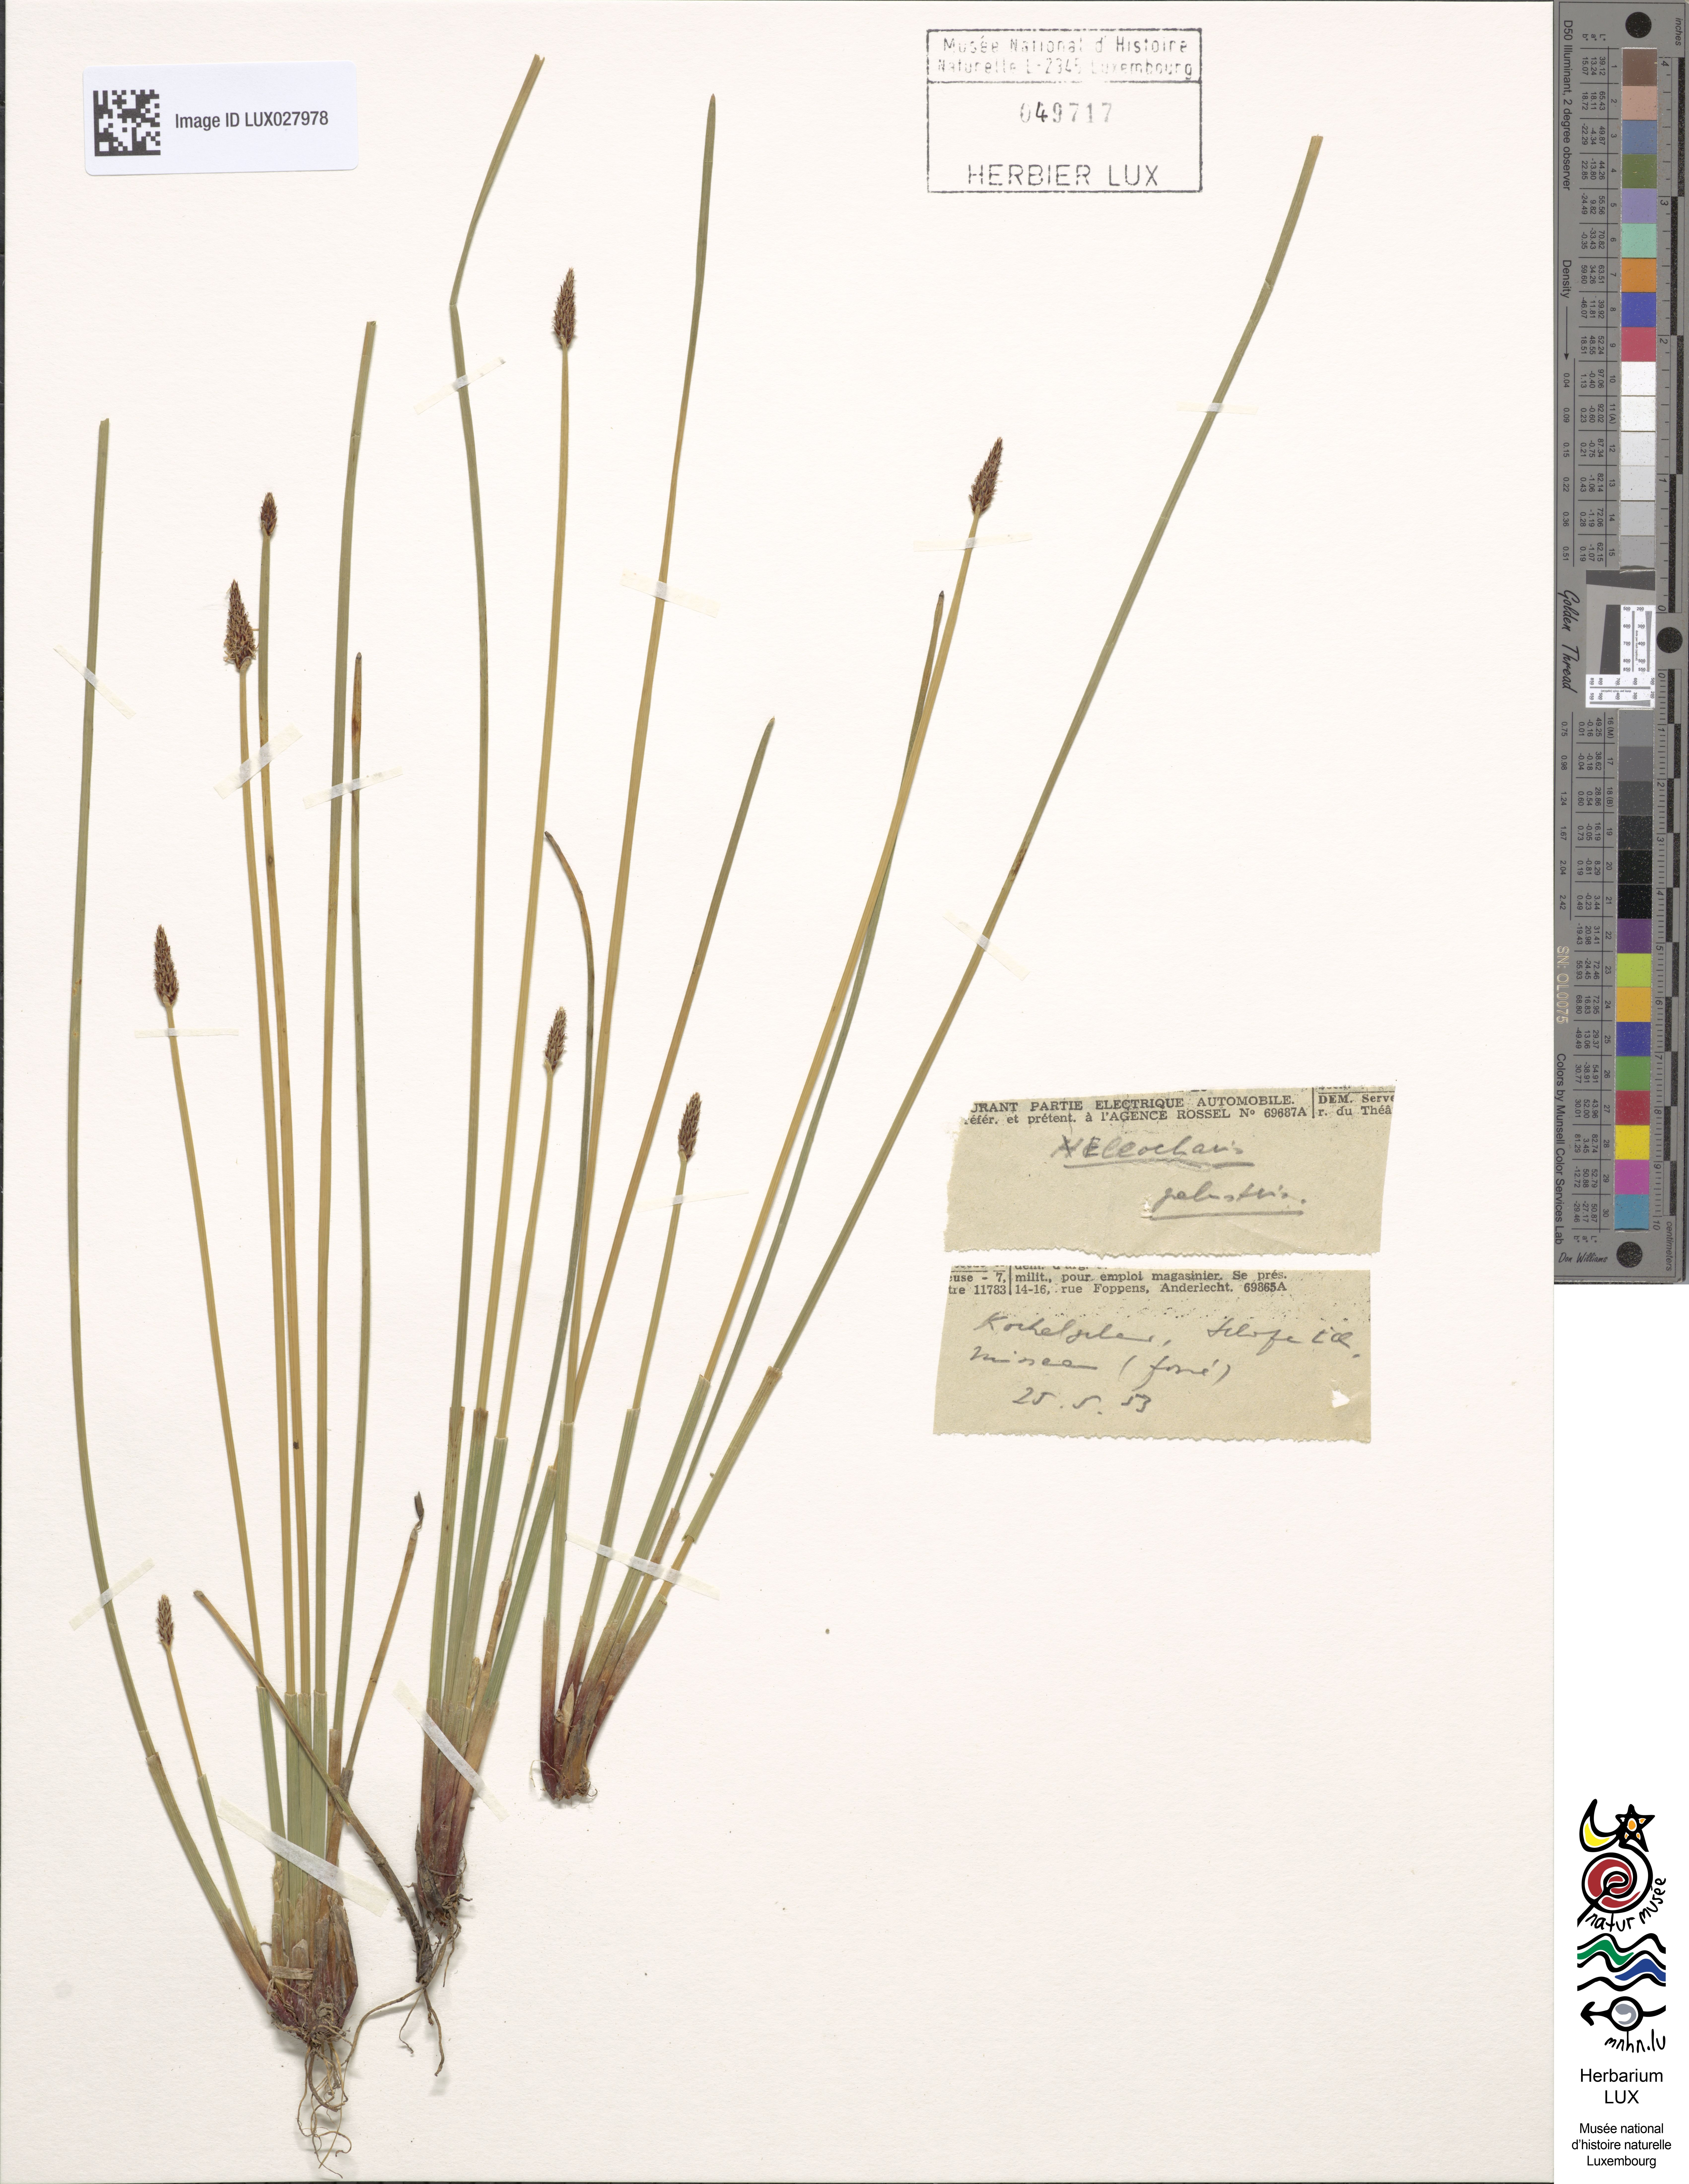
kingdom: Plantae
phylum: Tracheophyta
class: Liliopsida
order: Poales
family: Cyperaceae
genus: Eleocharis
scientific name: Eleocharis palustris
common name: Common spike-rush
